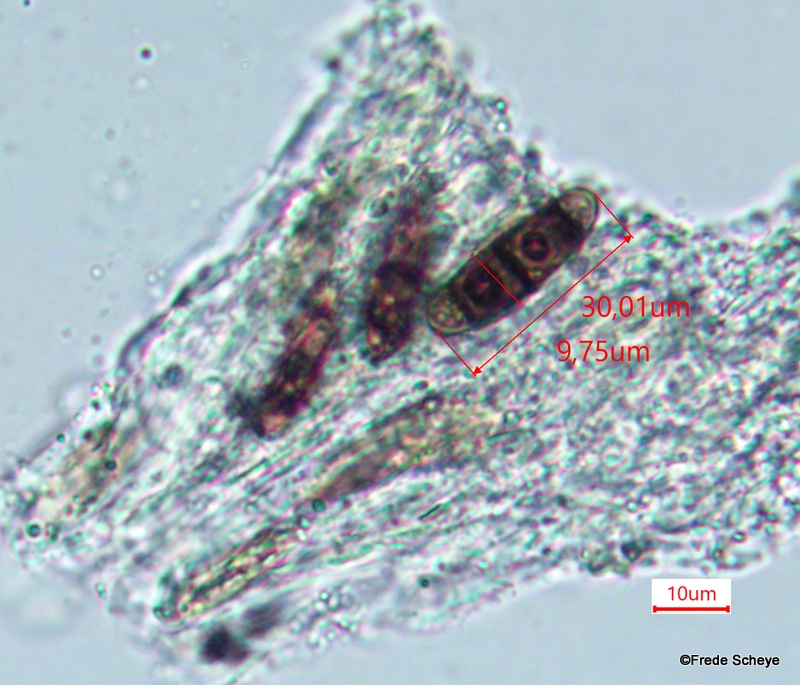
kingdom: Fungi
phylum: Ascomycota
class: Dothideomycetes
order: Hysteriales
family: Hysteriaceae
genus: Hysterium
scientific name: Hysterium pulicare
